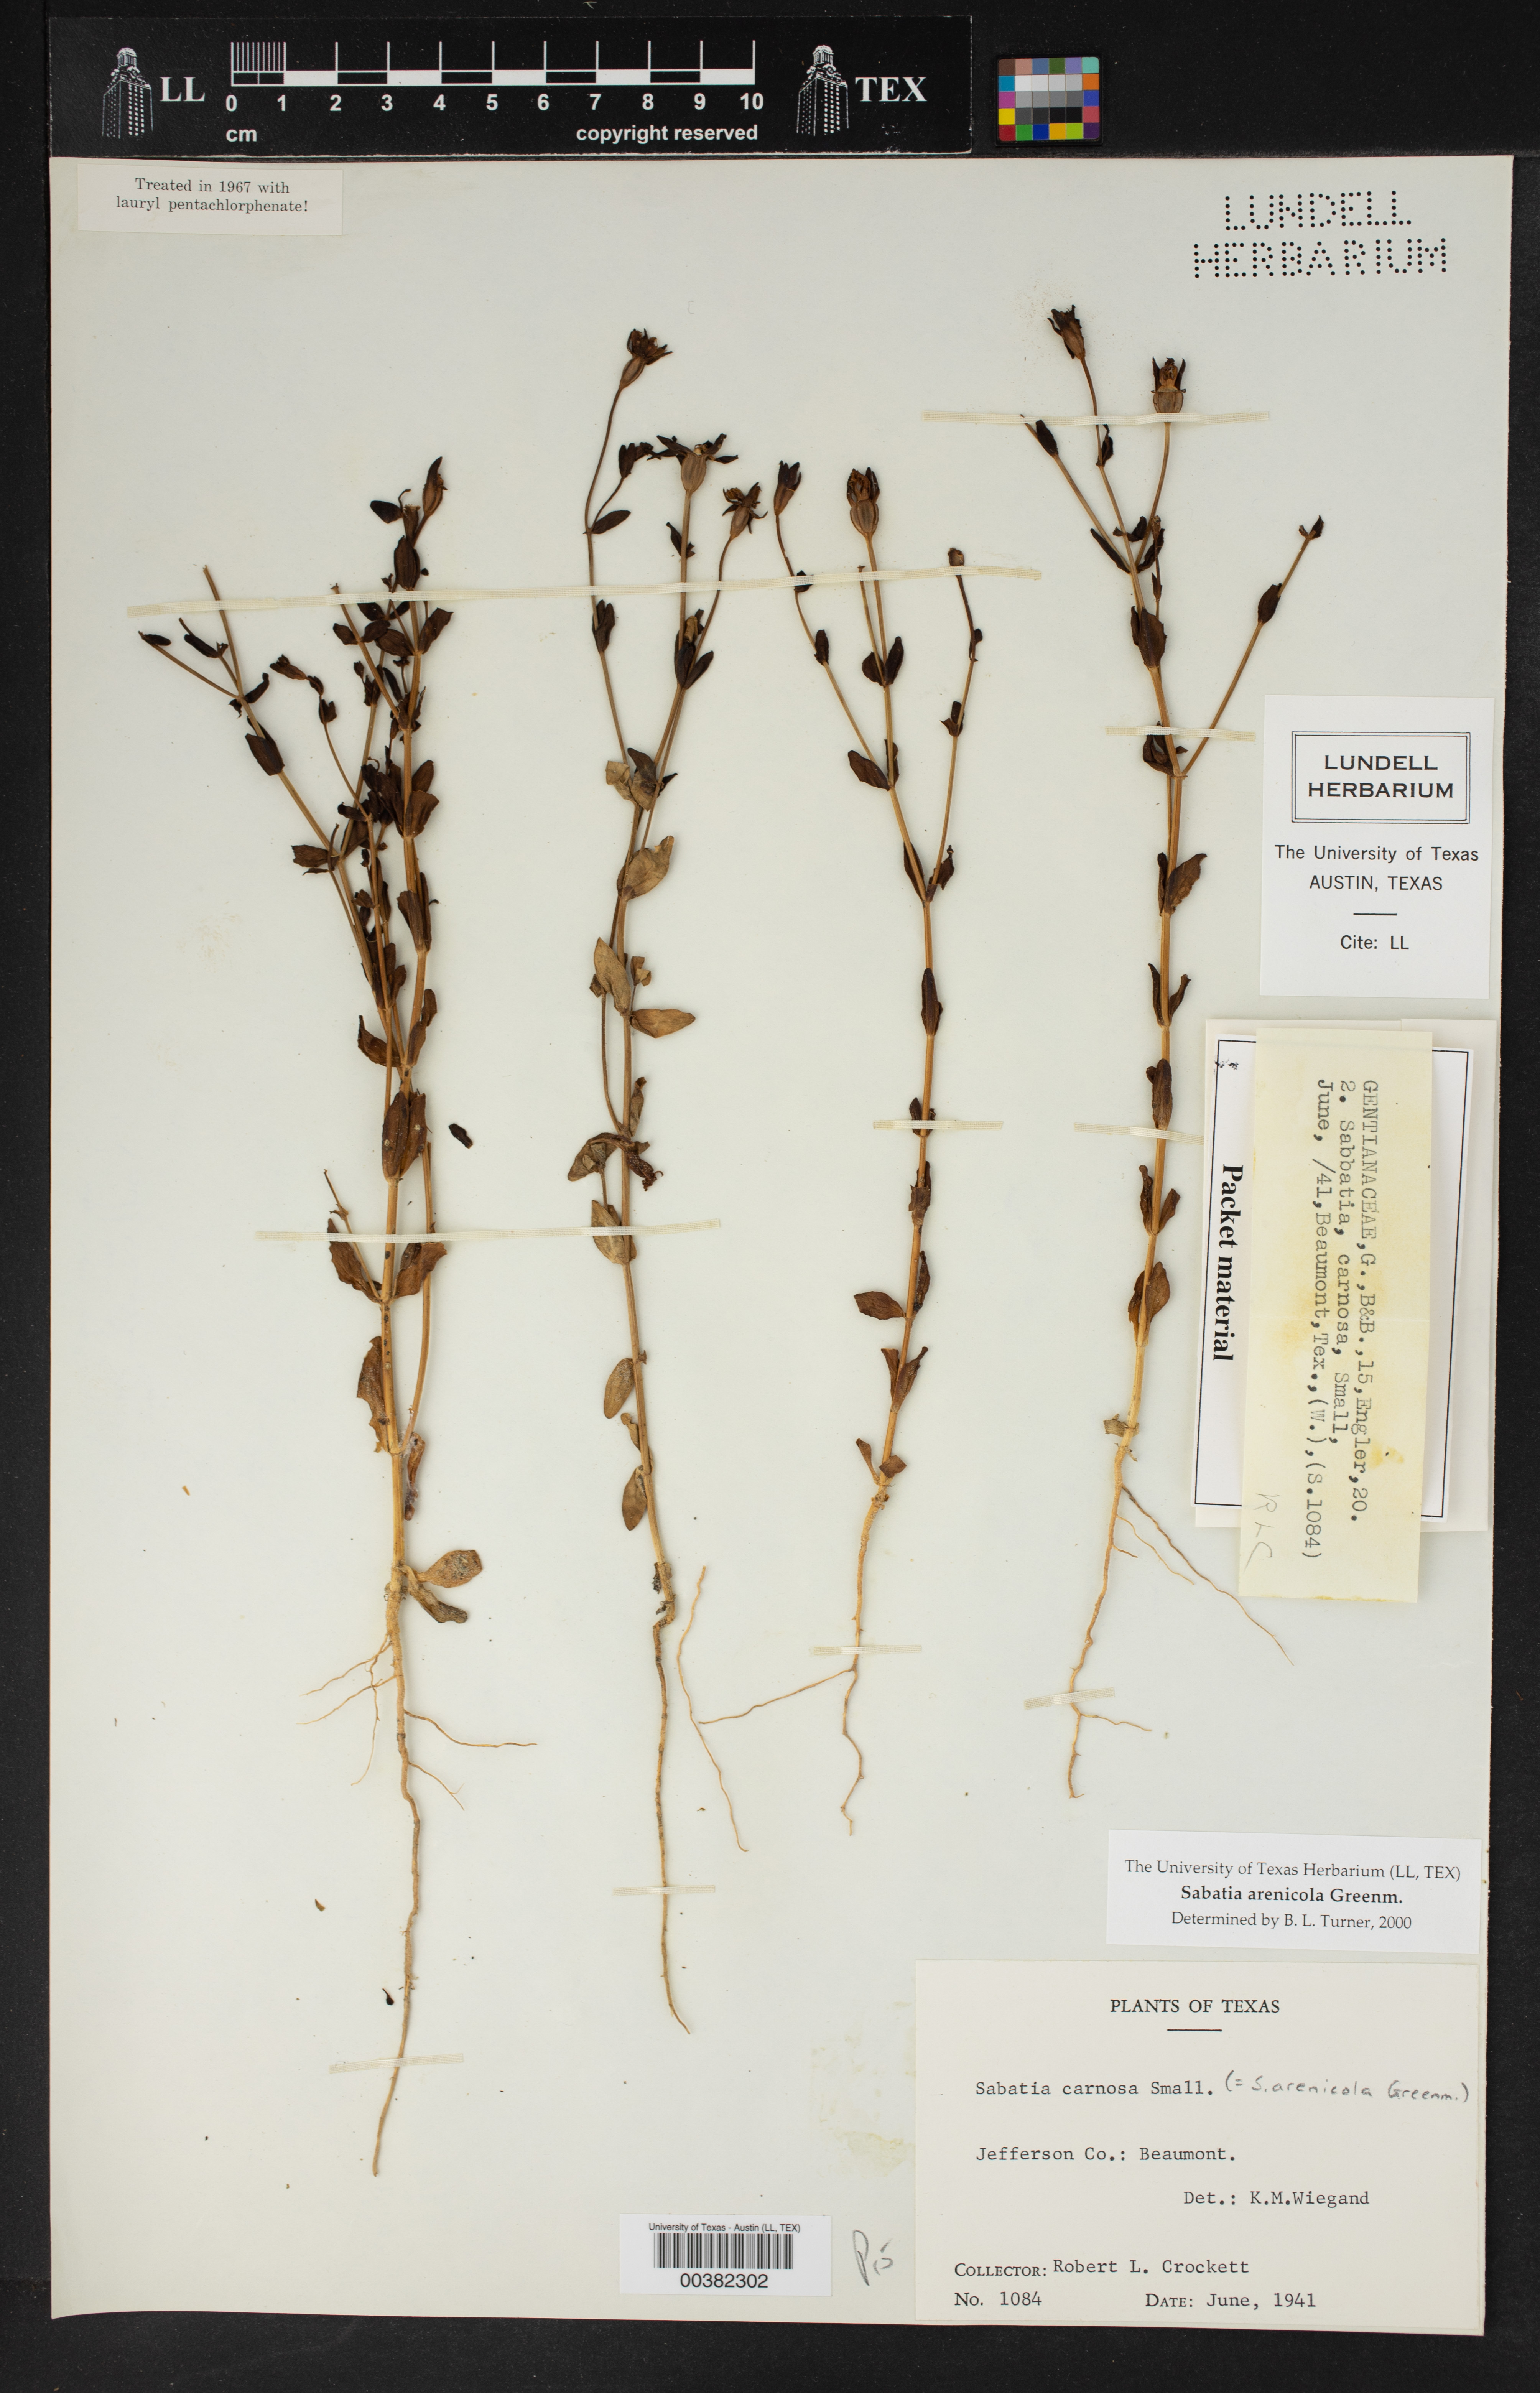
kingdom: Plantae
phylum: Tracheophyta
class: Magnoliopsida
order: Gentianales
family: Gentianaceae
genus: Sabatia
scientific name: Sabatia arenicola
